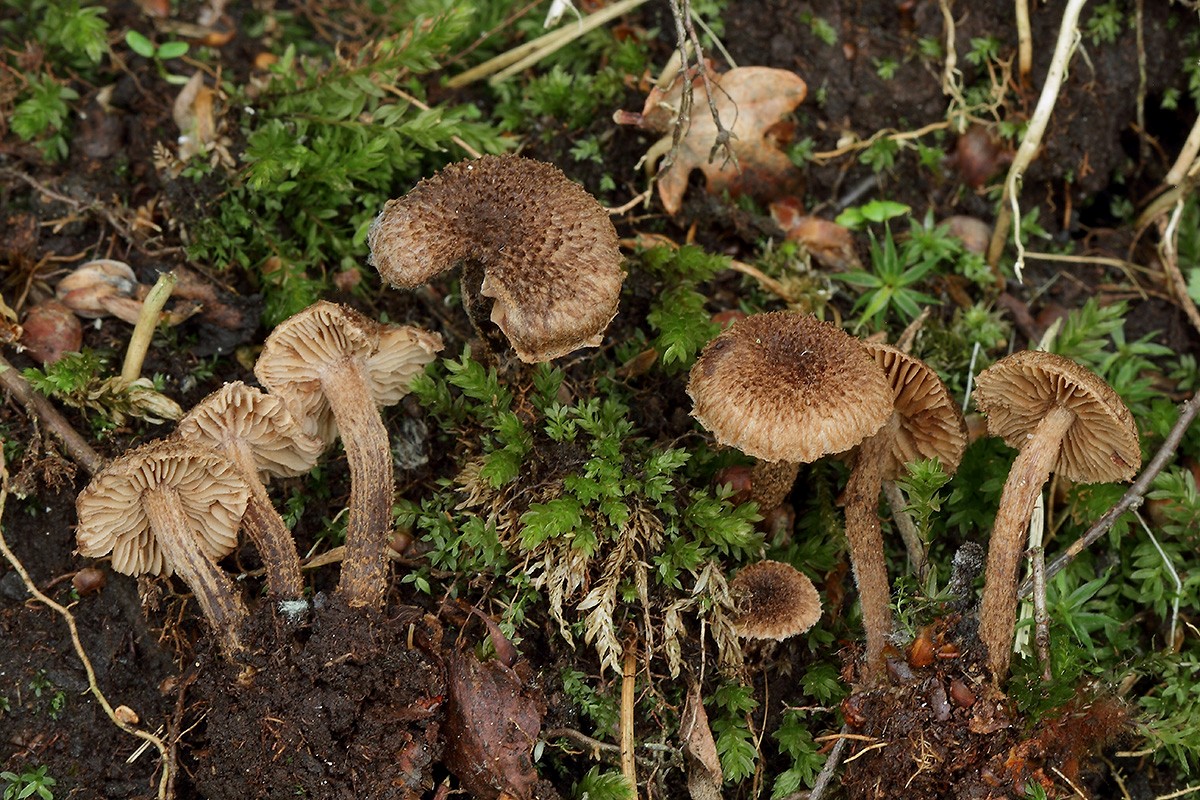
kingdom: Fungi
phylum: Basidiomycota
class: Agaricomycetes
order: Agaricales
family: Inocybaceae
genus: Inocybe
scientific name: Inocybe stellatospora
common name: spidsskællet trævlhat
